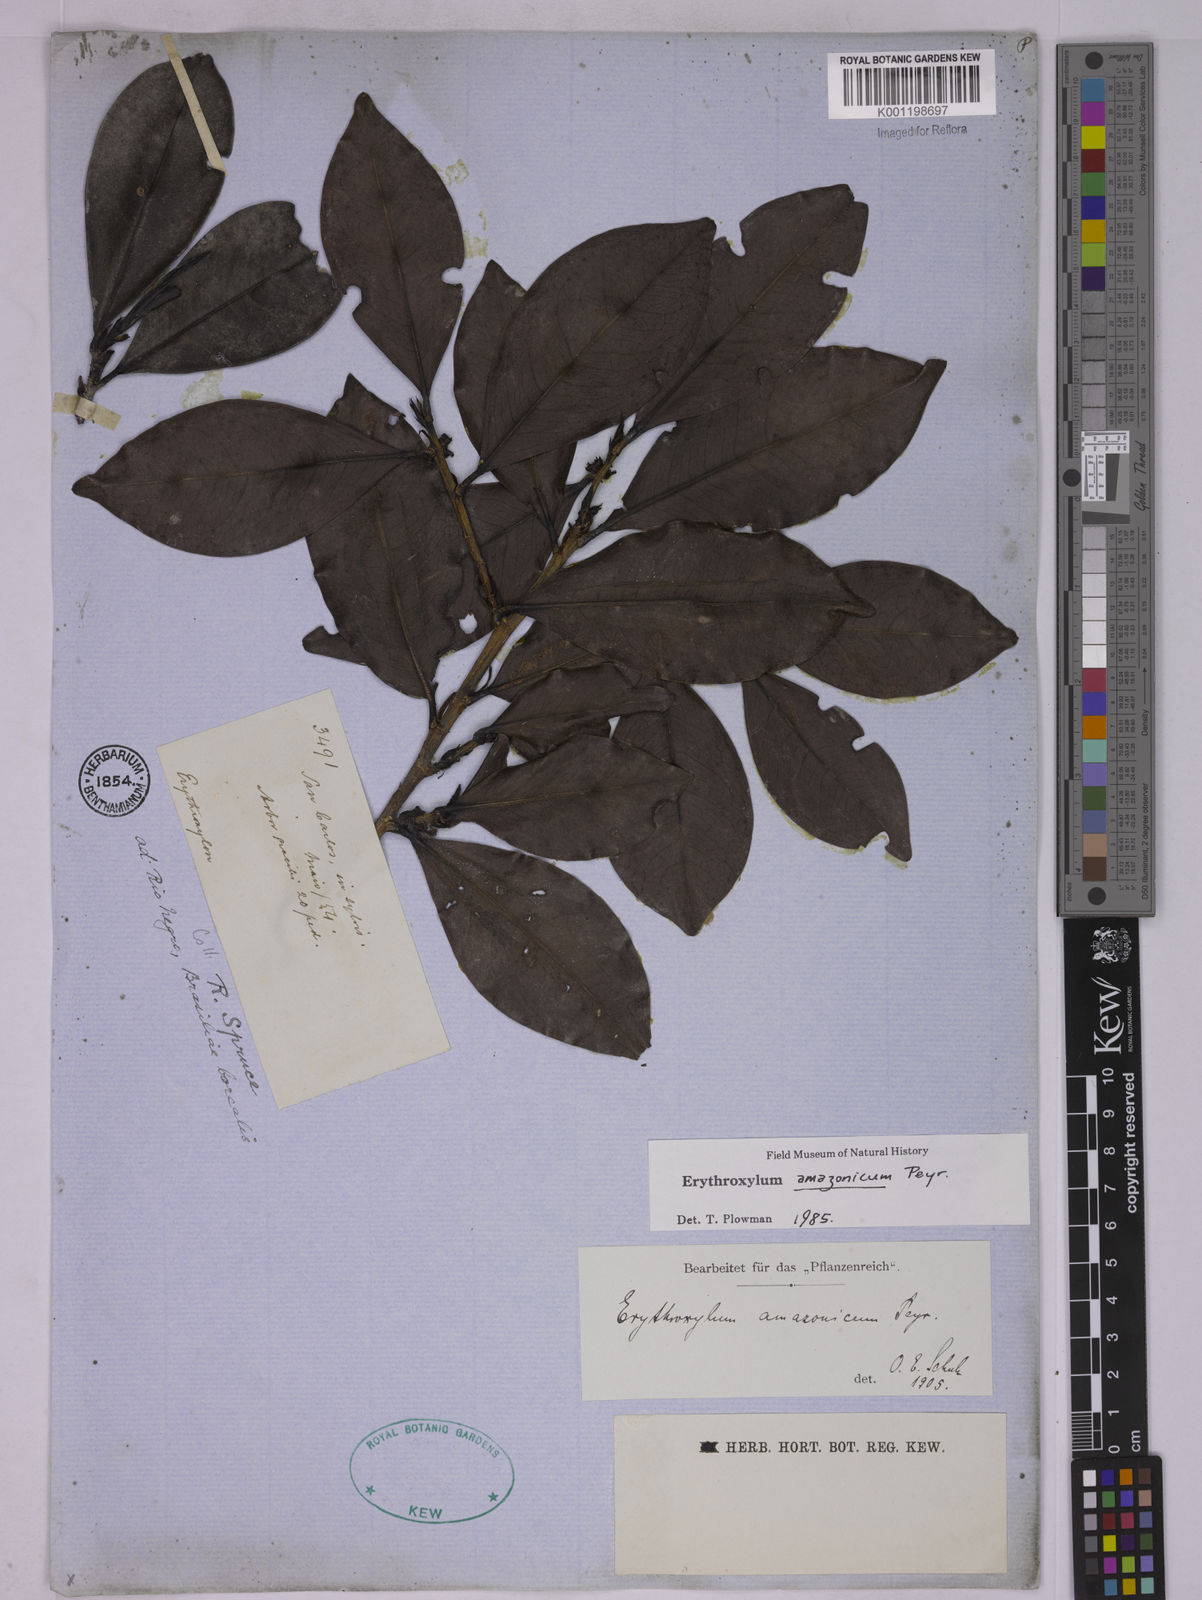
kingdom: Plantae
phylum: Tracheophyta
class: Magnoliopsida
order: Malpighiales
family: Erythroxylaceae
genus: Erythroxylum
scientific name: Erythroxylum amazonicum
